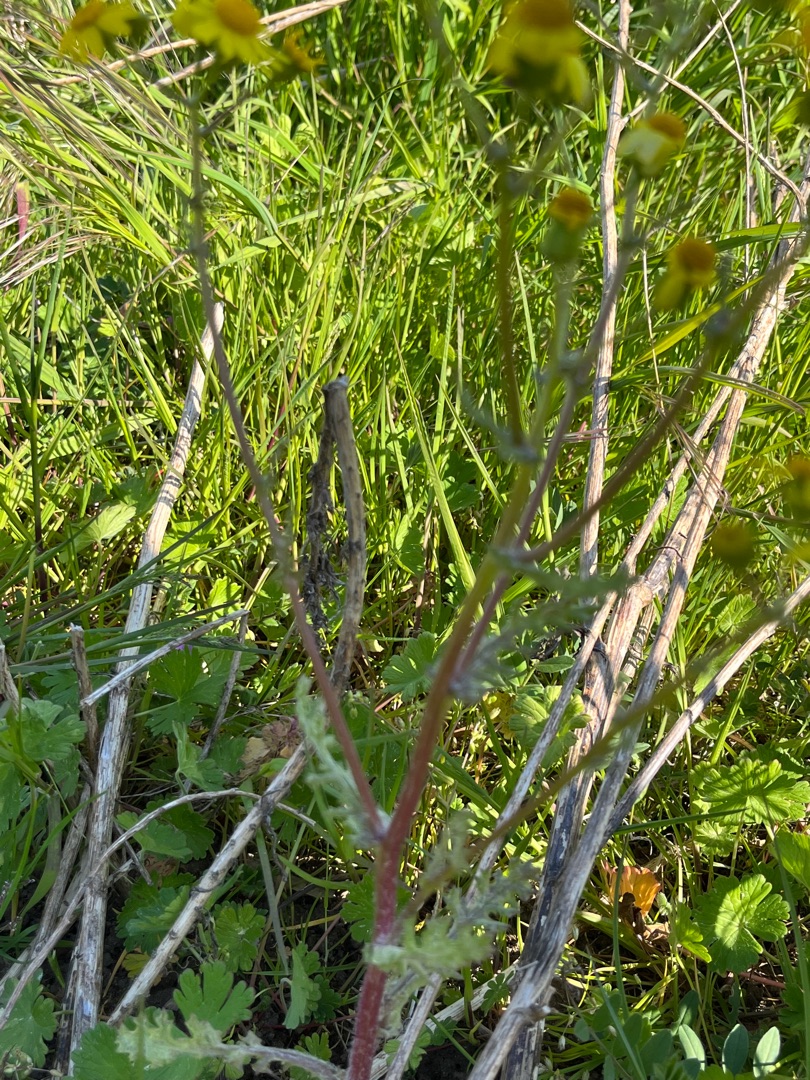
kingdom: Plantae
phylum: Tracheophyta
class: Magnoliopsida
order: Asterales
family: Asteraceae
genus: Senecio
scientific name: Senecio leucanthemifolius
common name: Vår-brandbæger
